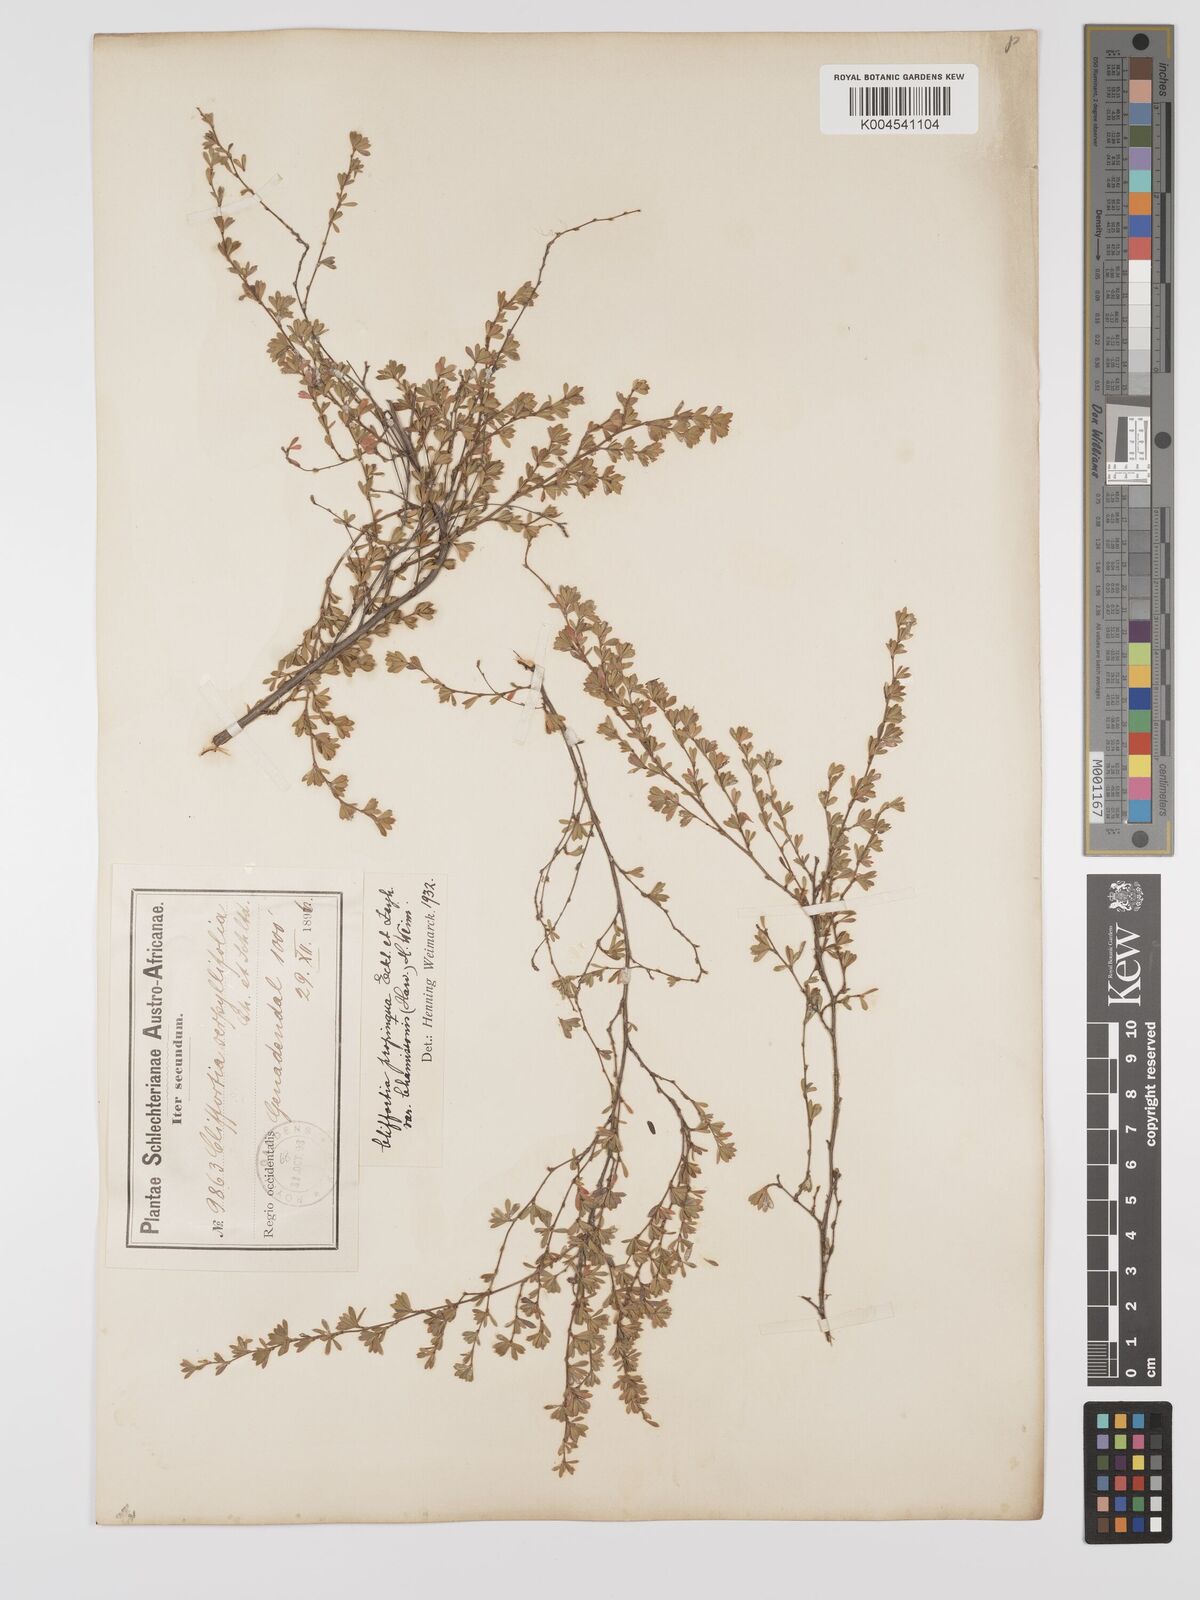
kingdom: Plantae
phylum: Tracheophyta
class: Magnoliopsida
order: Rosales
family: Rosaceae
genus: Cliffortia
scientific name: Cliffortia complanata
